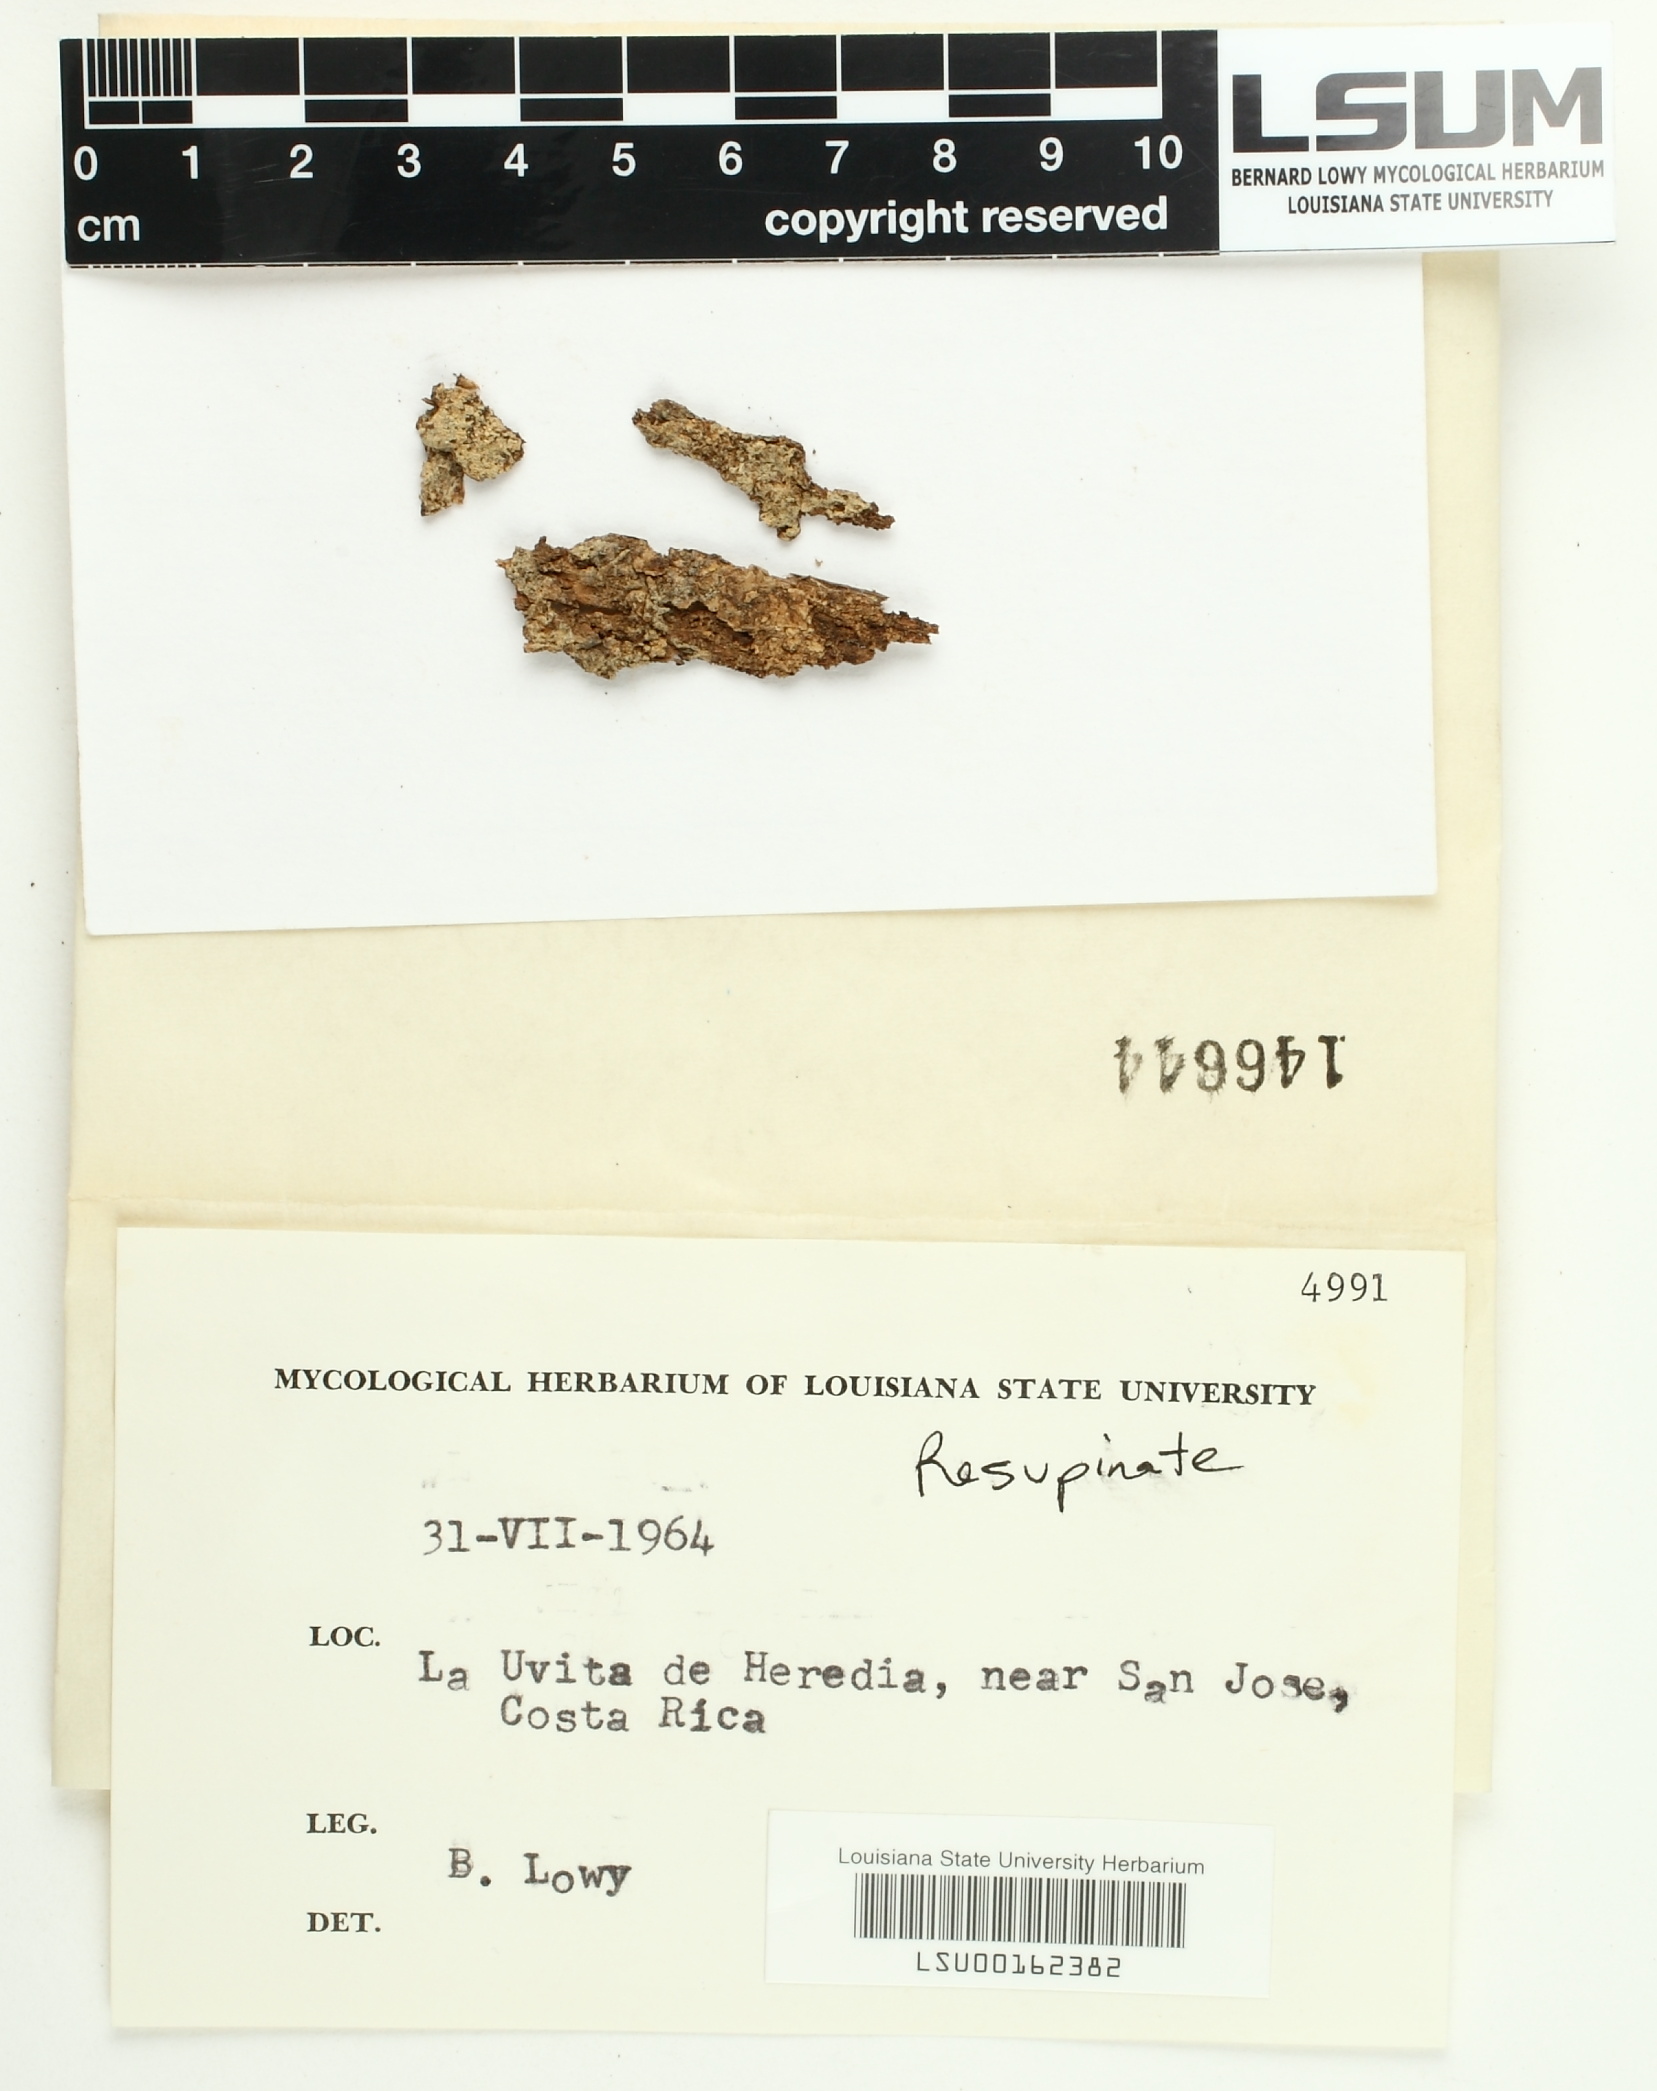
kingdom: Fungi
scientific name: Fungi
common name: Fungi
